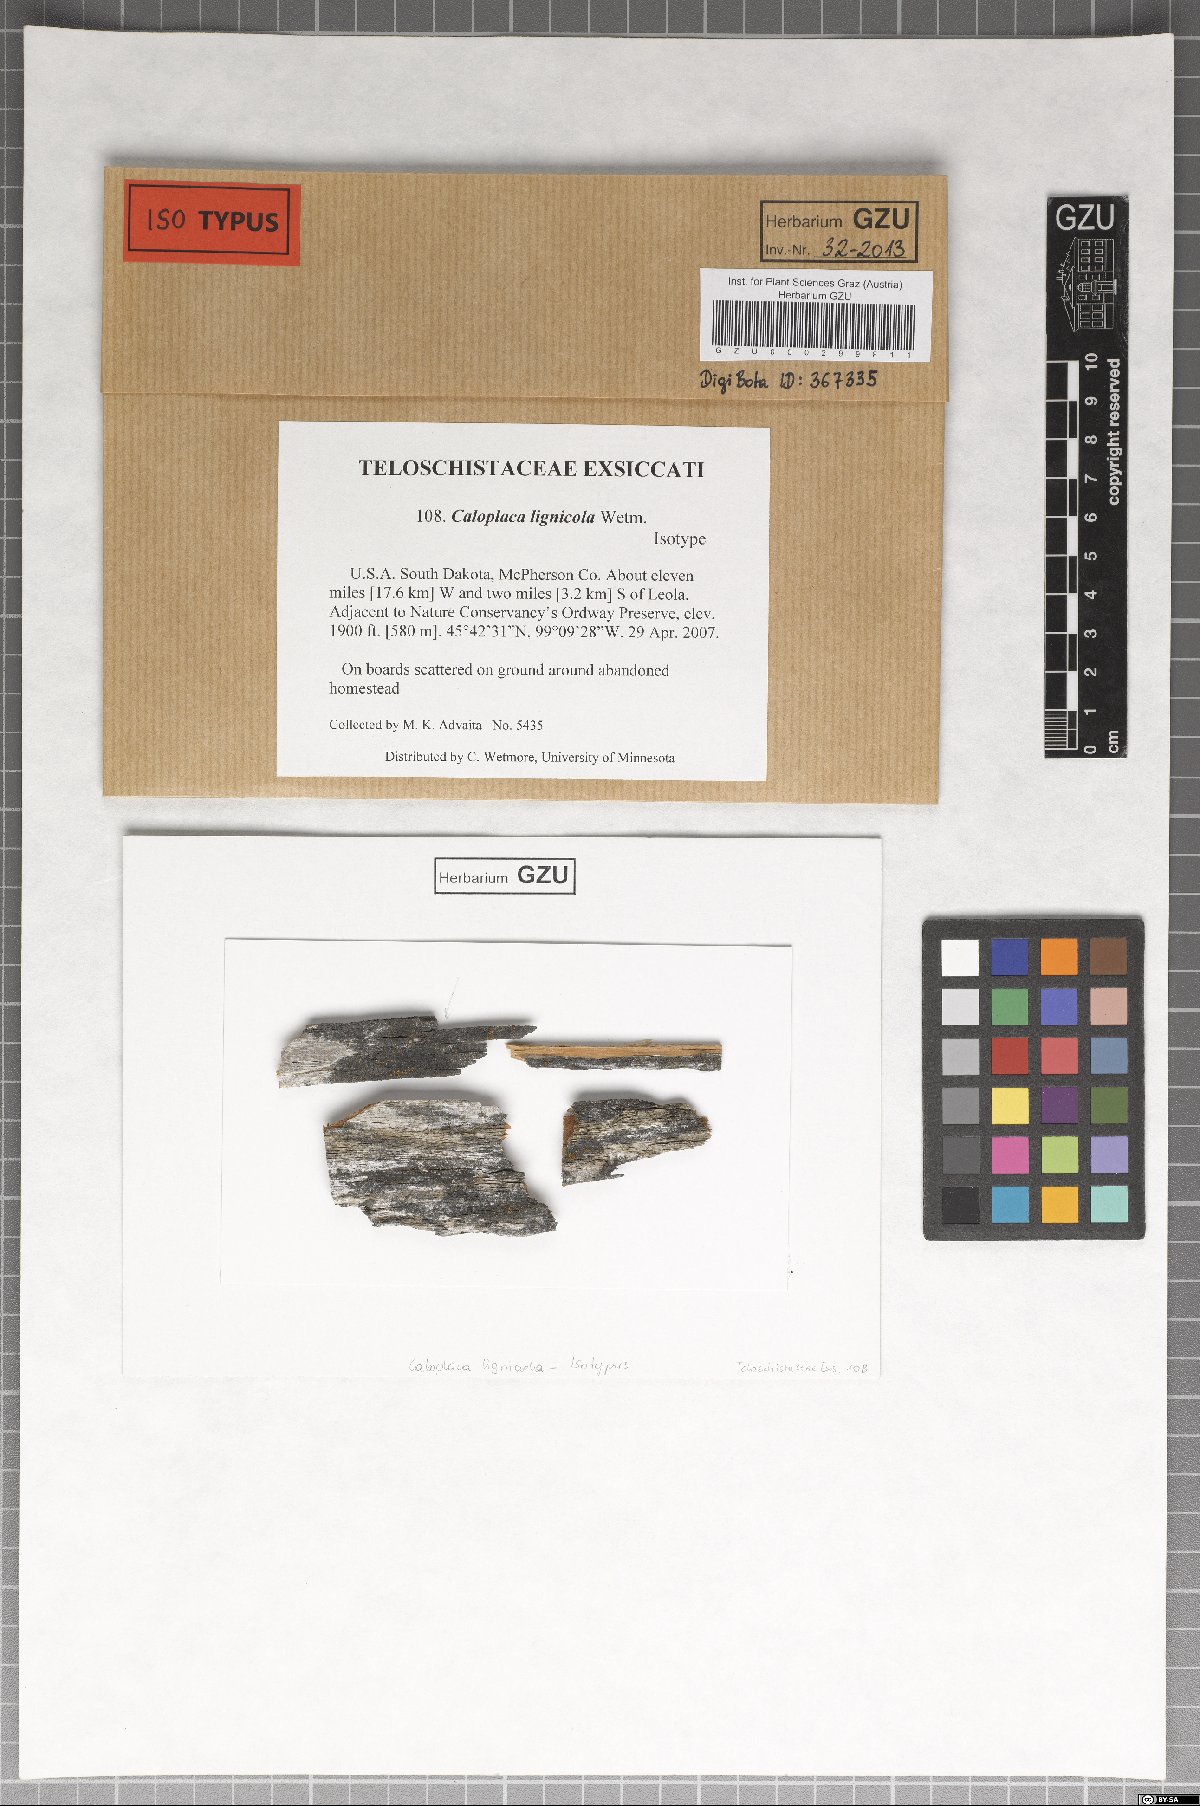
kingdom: Fungi
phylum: Ascomycota
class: Lecanoromycetes
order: Teloschistales
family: Teloschistaceae
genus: Caloplaca
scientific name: Caloplaca lignicola
